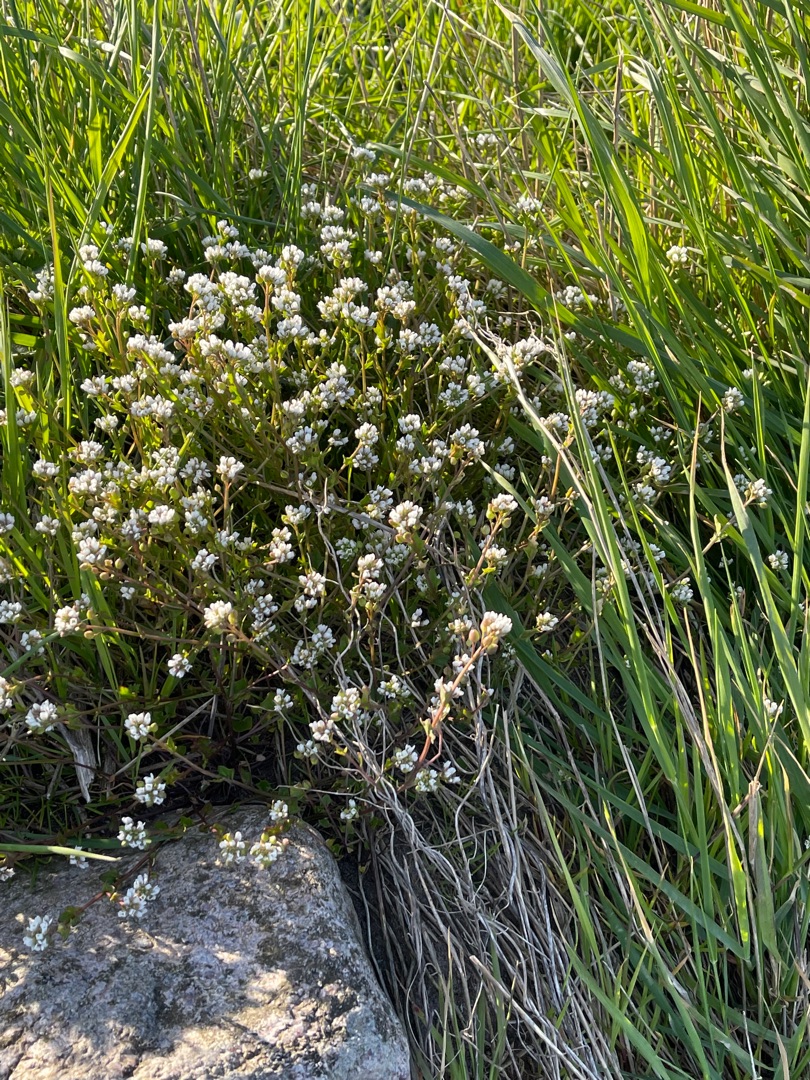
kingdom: Plantae
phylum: Tracheophyta
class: Magnoliopsida
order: Brassicales
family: Brassicaceae
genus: Cochlearia
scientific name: Cochlearia officinalis
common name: Læge-kokleare
